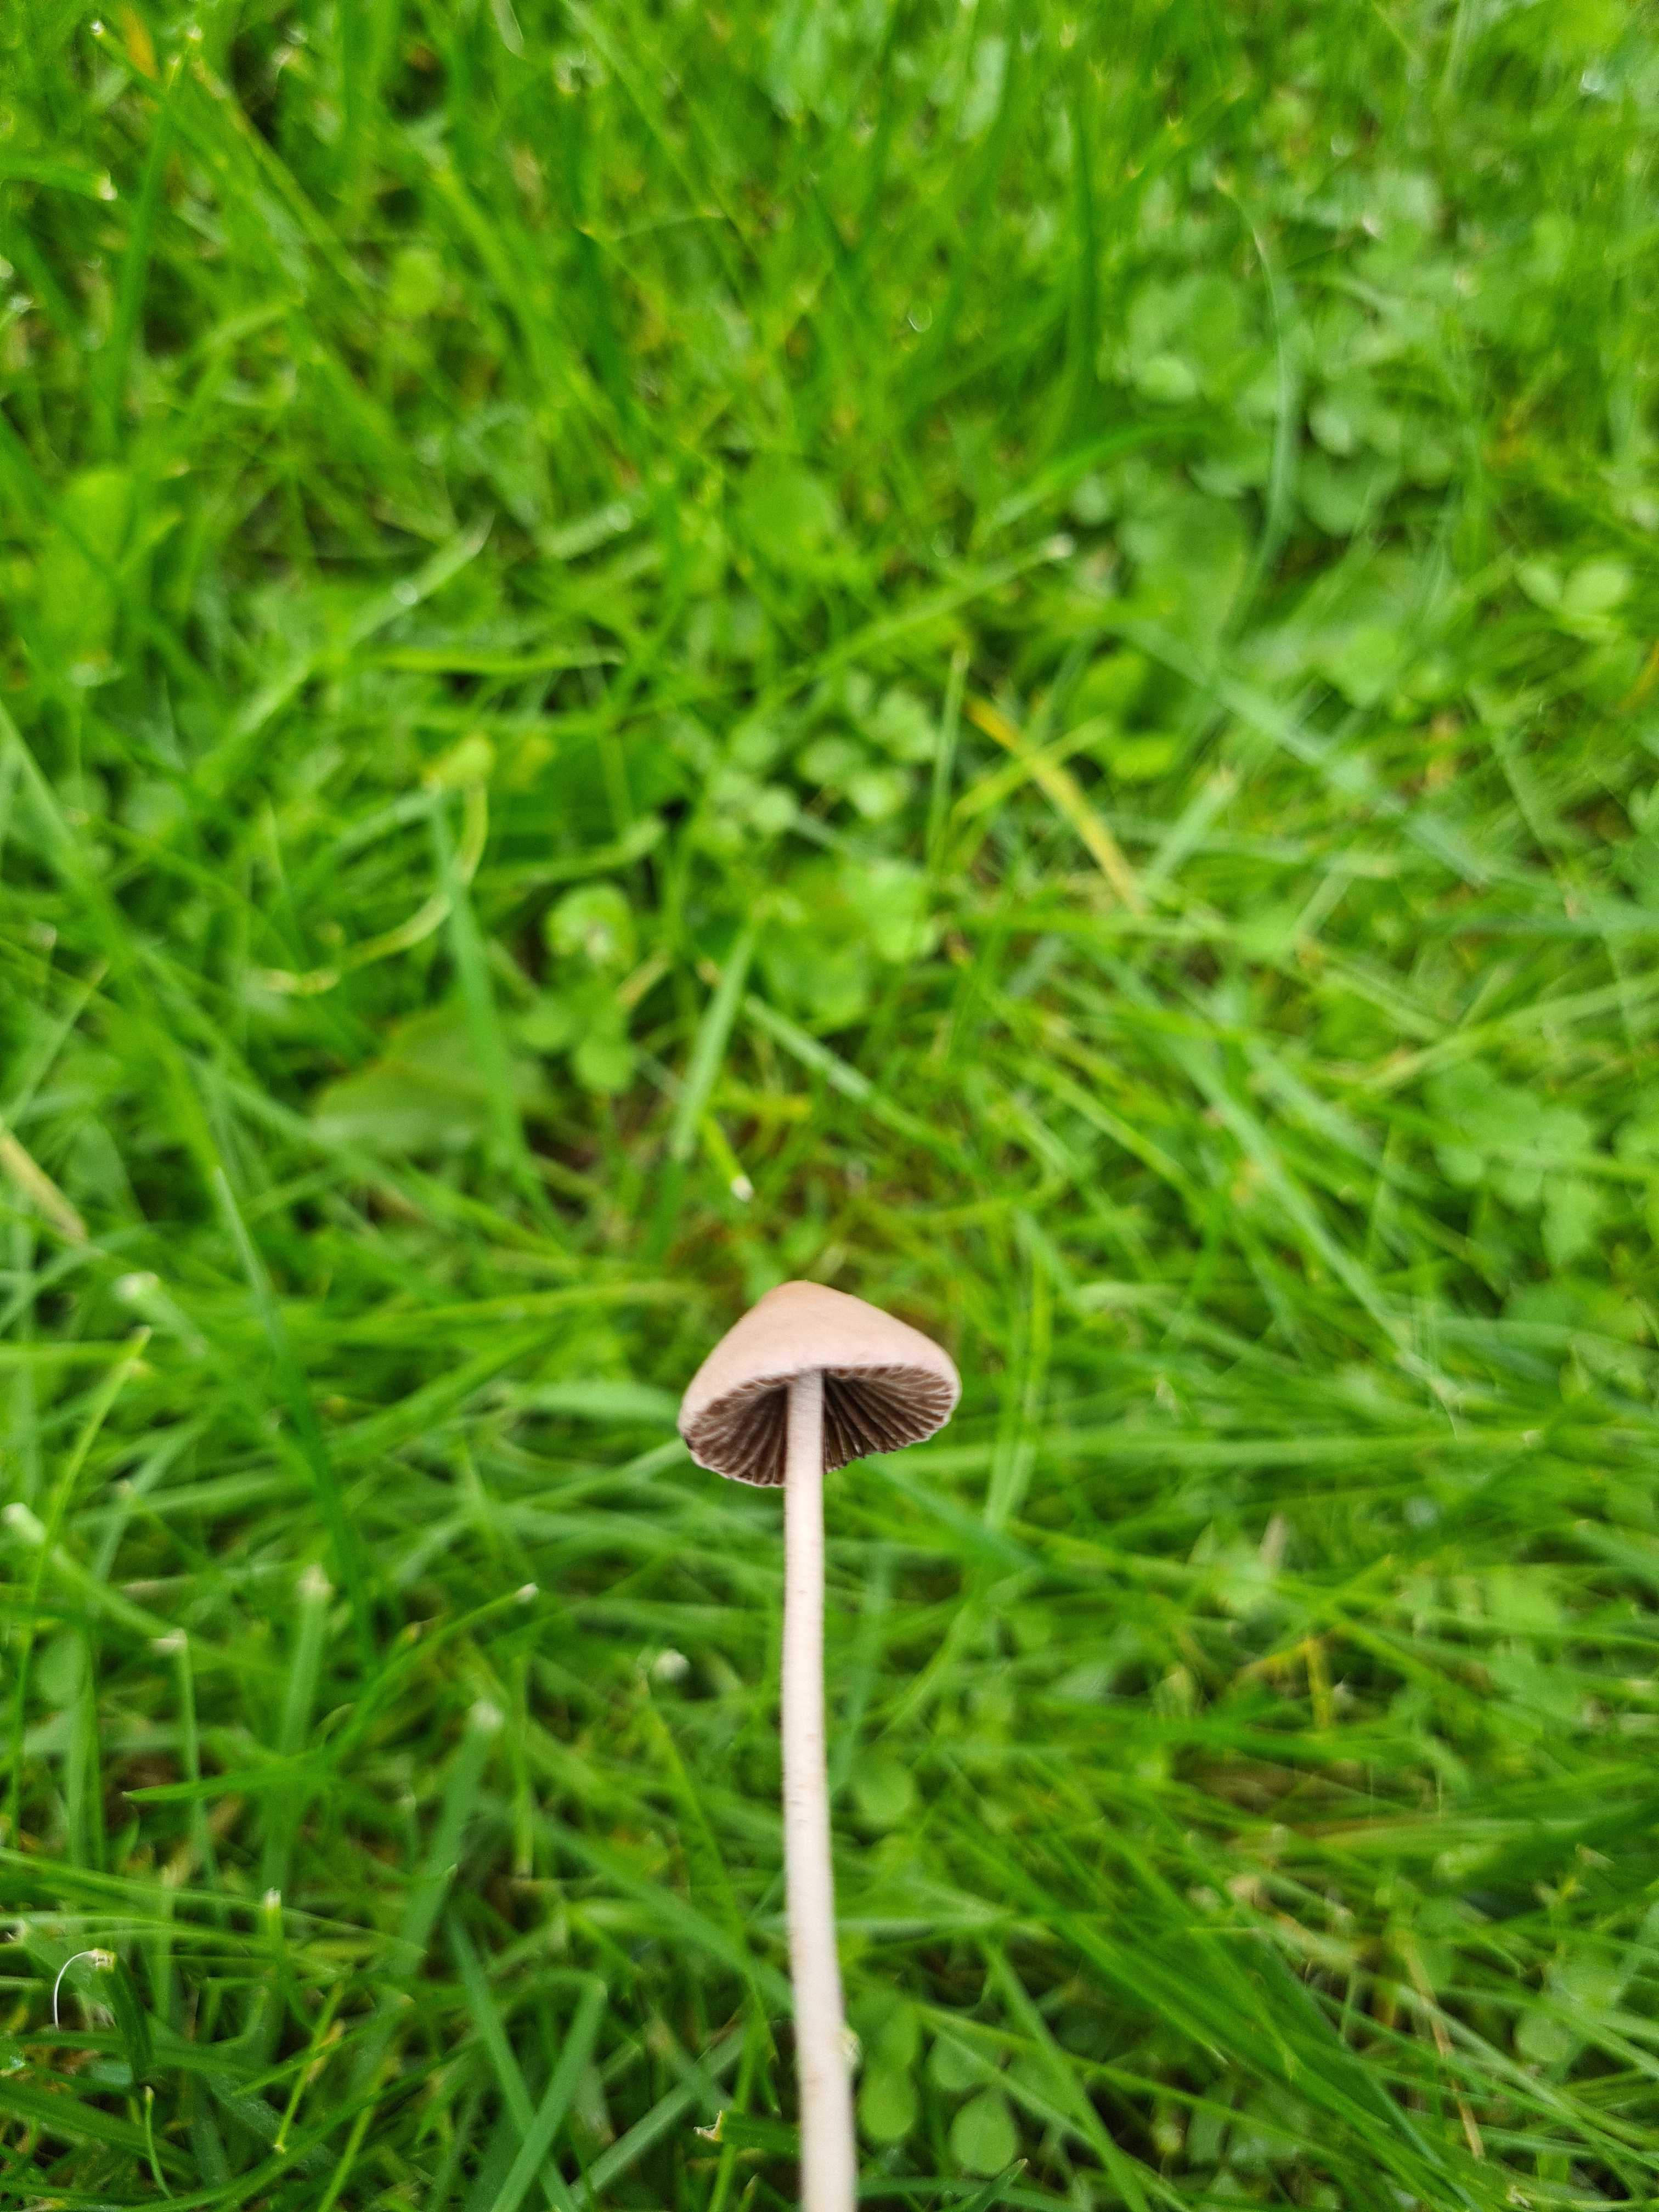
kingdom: Fungi
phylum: Basidiomycota
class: Agaricomycetes
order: Agaricales
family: Bolbitiaceae
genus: Panaeolina
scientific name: Panaeolina foenisecii
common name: høslætsvamp
